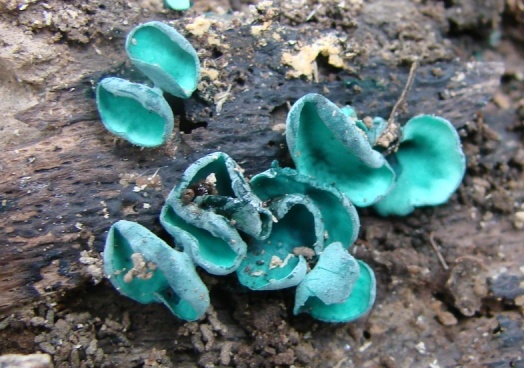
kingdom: Fungi
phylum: Ascomycota
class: Leotiomycetes
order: Helotiales
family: Chlorociboriaceae
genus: Chlorociboria
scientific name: Chlorociboria aeruginascens
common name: almindelig grønskive
